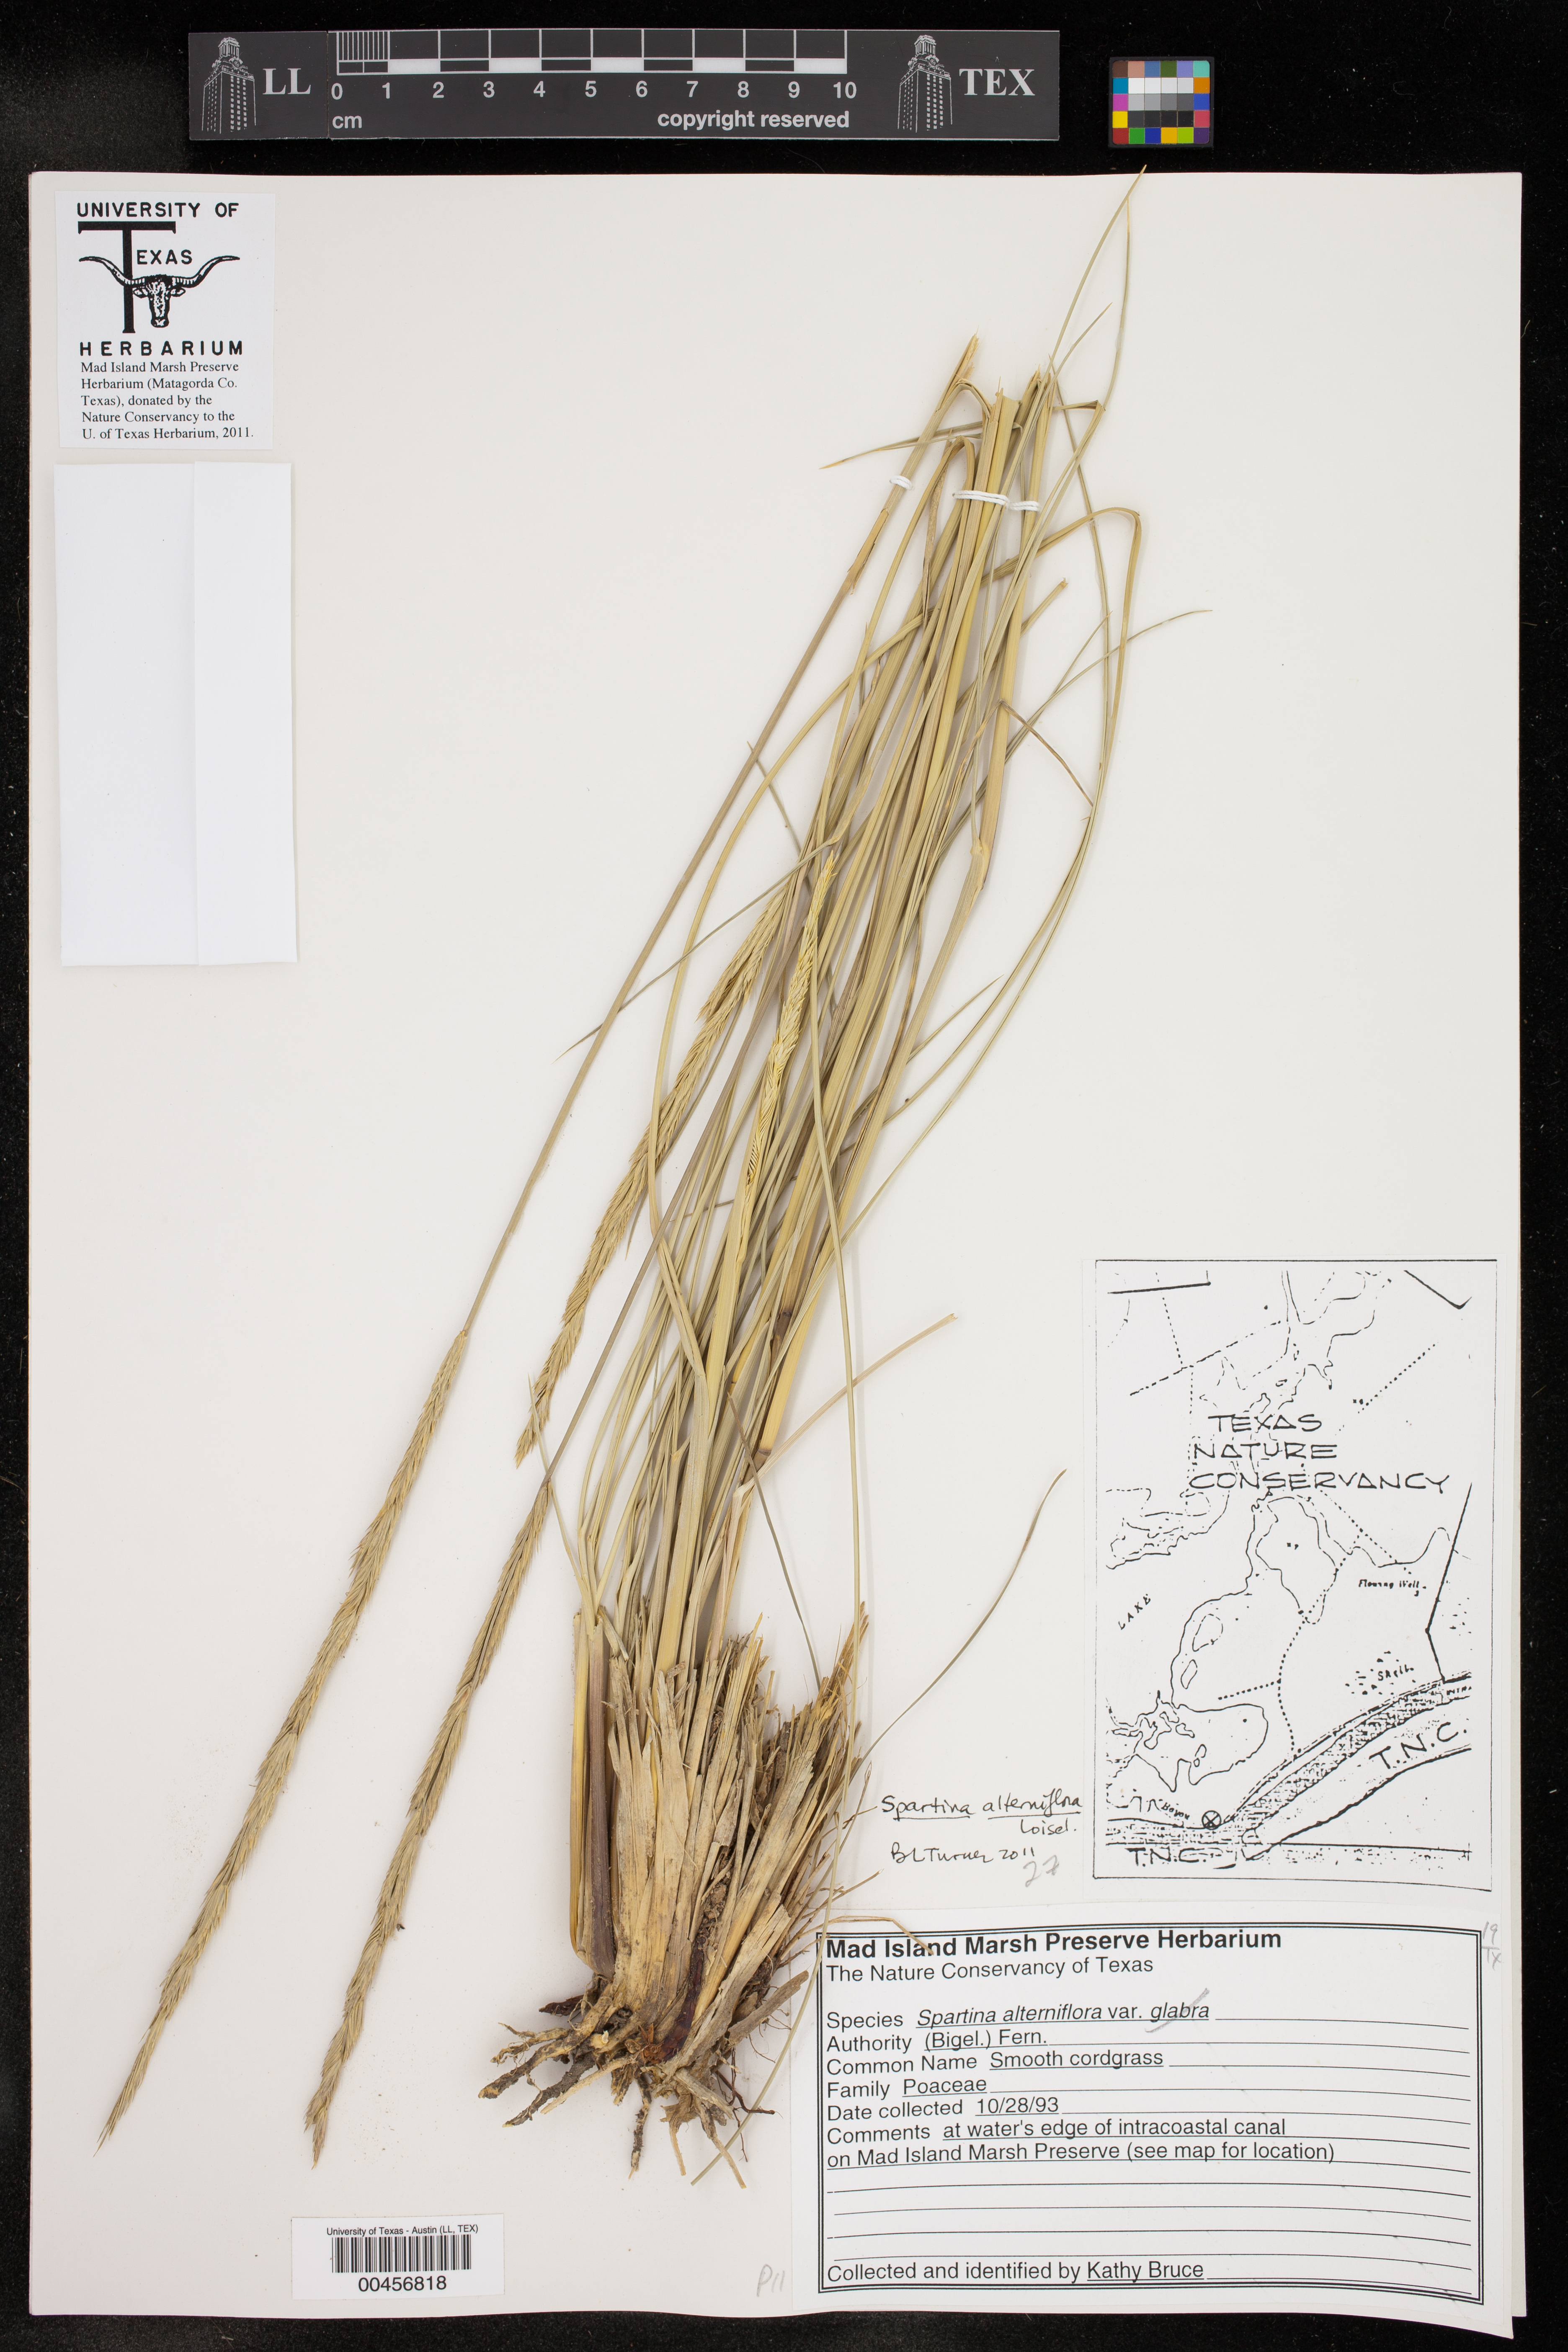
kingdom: Plantae
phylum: Tracheophyta
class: Liliopsida
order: Poales
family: Poaceae
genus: Sporobolus
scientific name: Sporobolus alterniflorus
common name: Atlantic cordgrass
